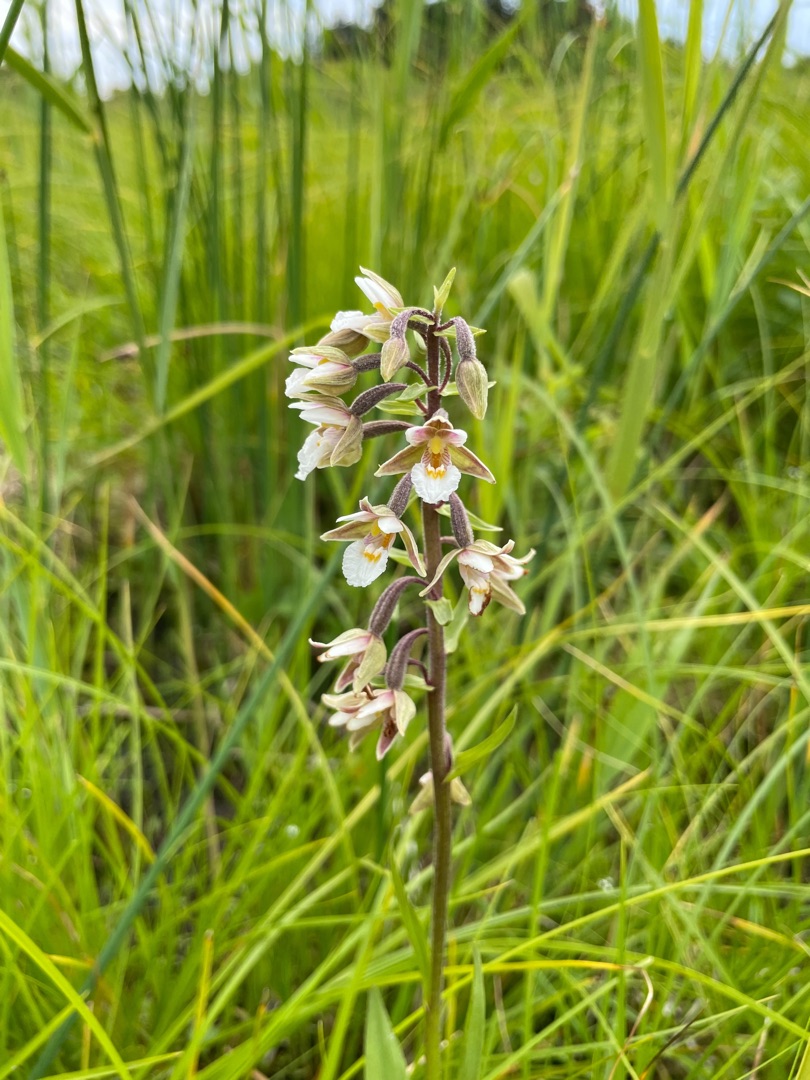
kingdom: Plantae
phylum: Tracheophyta
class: Liliopsida
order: Asparagales
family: Orchidaceae
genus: Epipactis
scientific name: Epipactis palustris
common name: Sump-hullæbe
